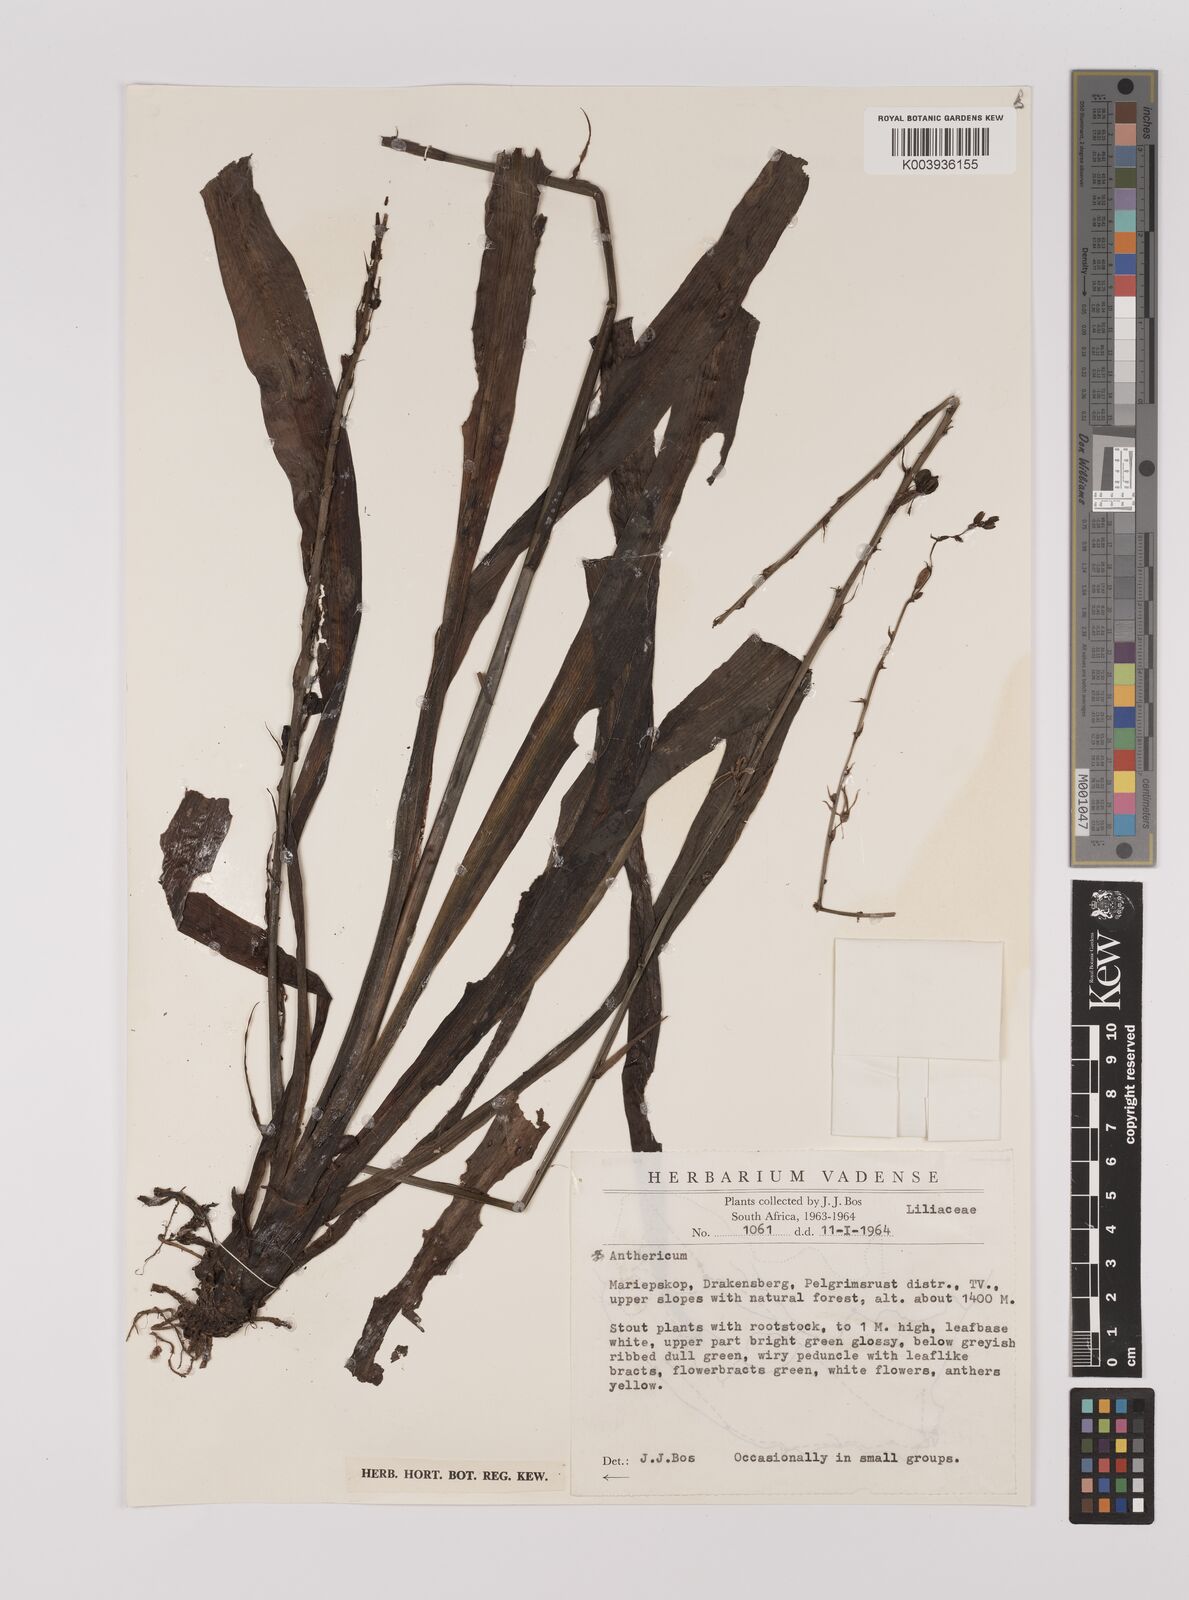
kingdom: Plantae
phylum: Tracheophyta
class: Liliopsida
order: Asparagales
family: Asparagaceae
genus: Chlorophytum
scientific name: Chlorophytum
